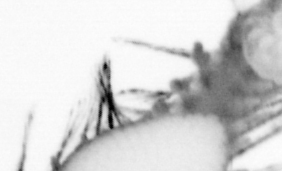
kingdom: Animalia
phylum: Annelida
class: Polychaeta
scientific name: Polychaeta
